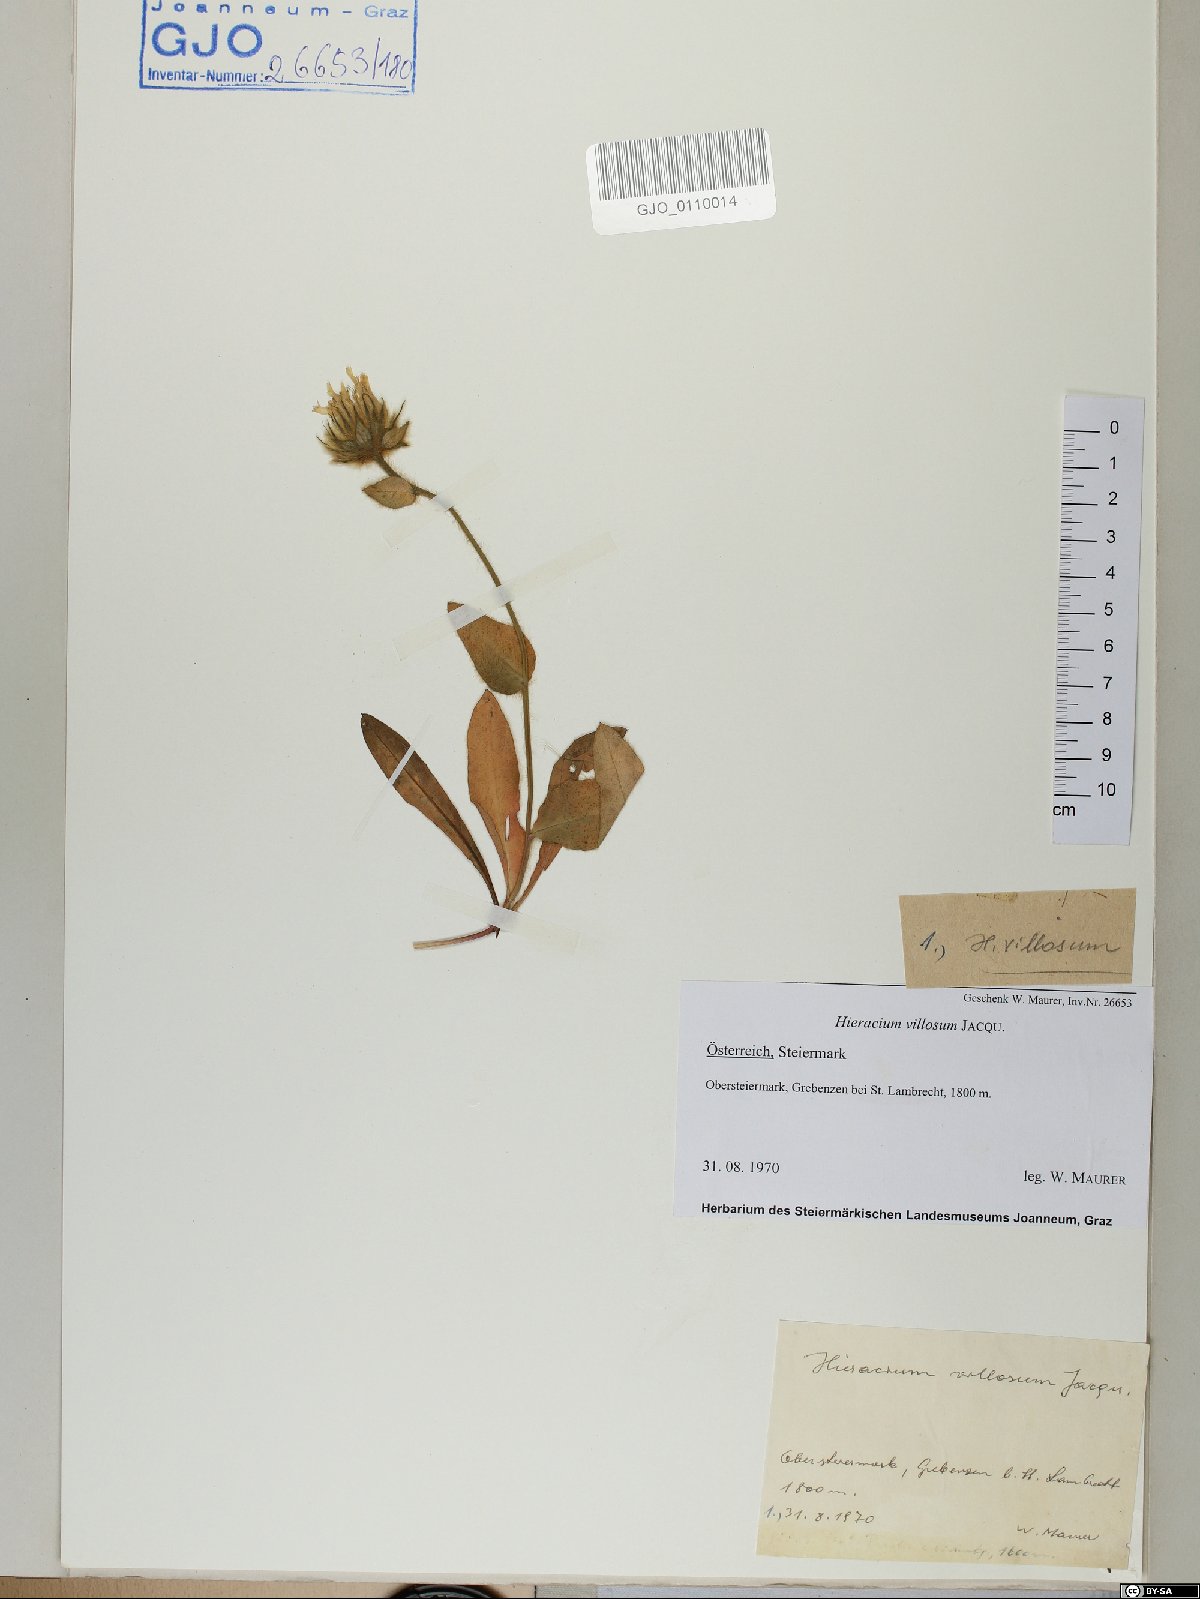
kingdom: Plantae
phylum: Tracheophyta
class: Magnoliopsida
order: Asterales
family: Asteraceae
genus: Hieracium
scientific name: Hieracium villosum
